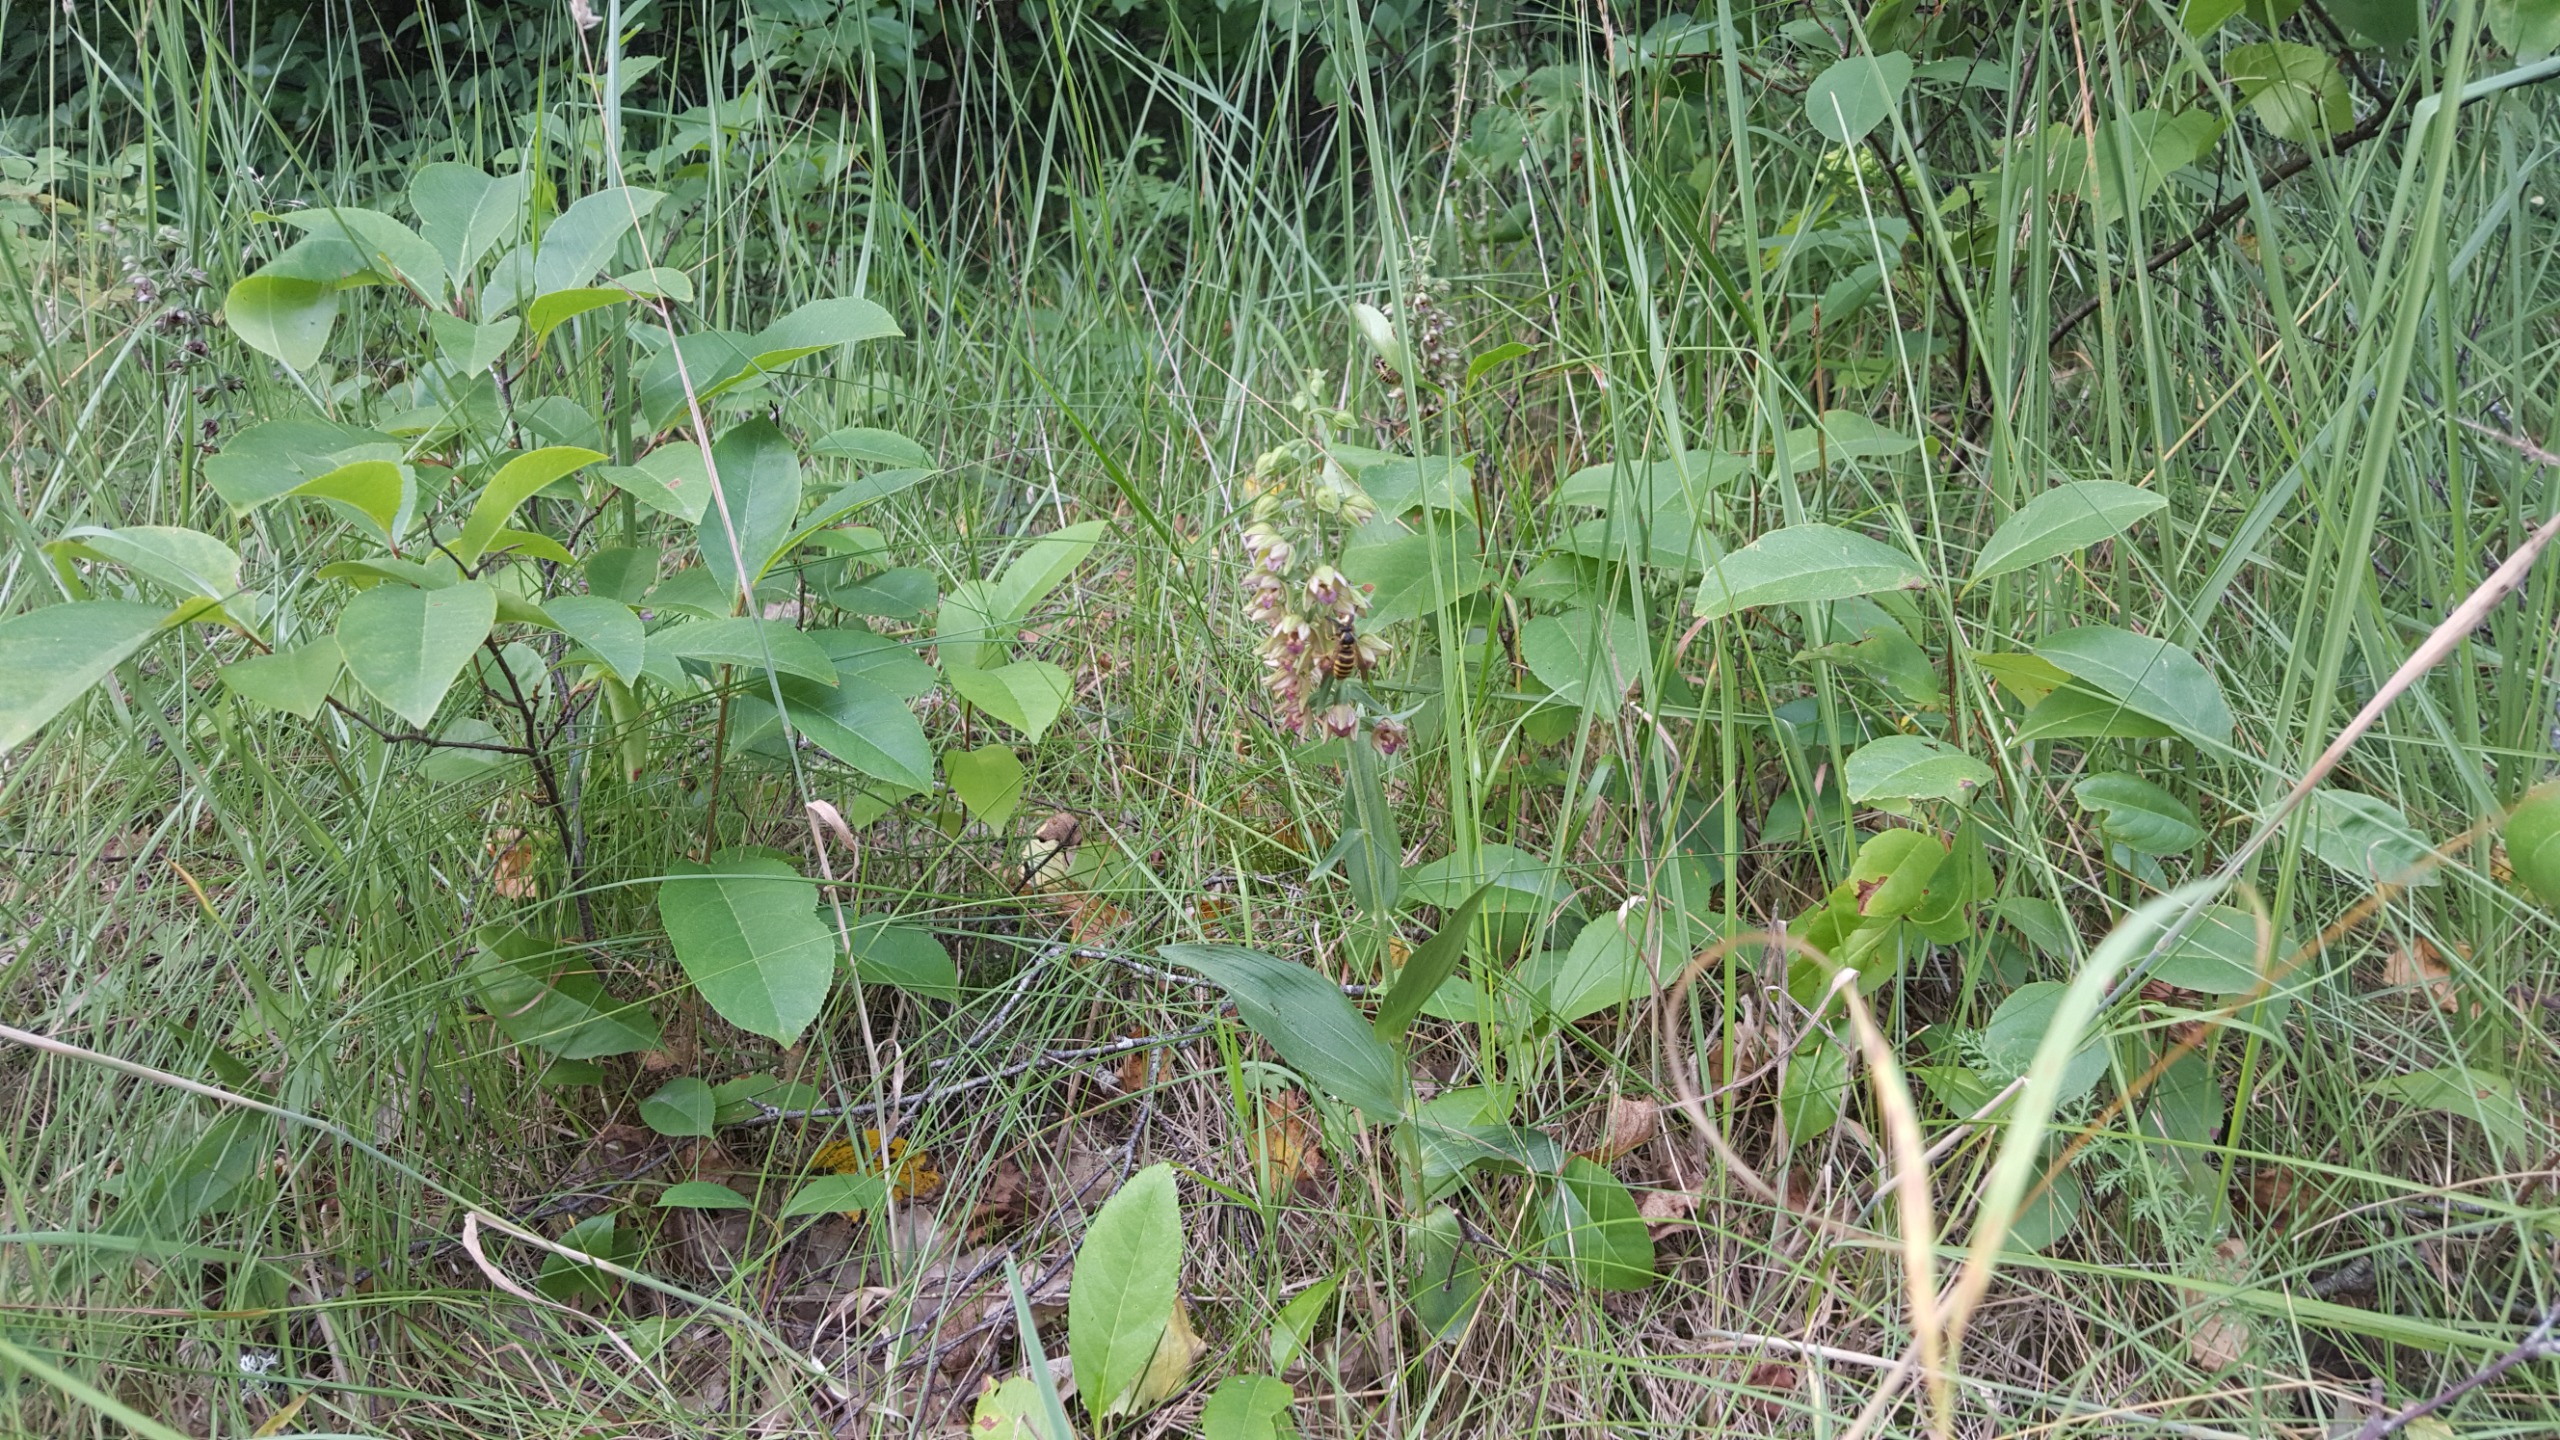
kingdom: Plantae
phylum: Tracheophyta
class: Liliopsida
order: Asparagales
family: Orchidaceae
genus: Epipactis
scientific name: Epipactis helleborine
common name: Skov-hullæbe
